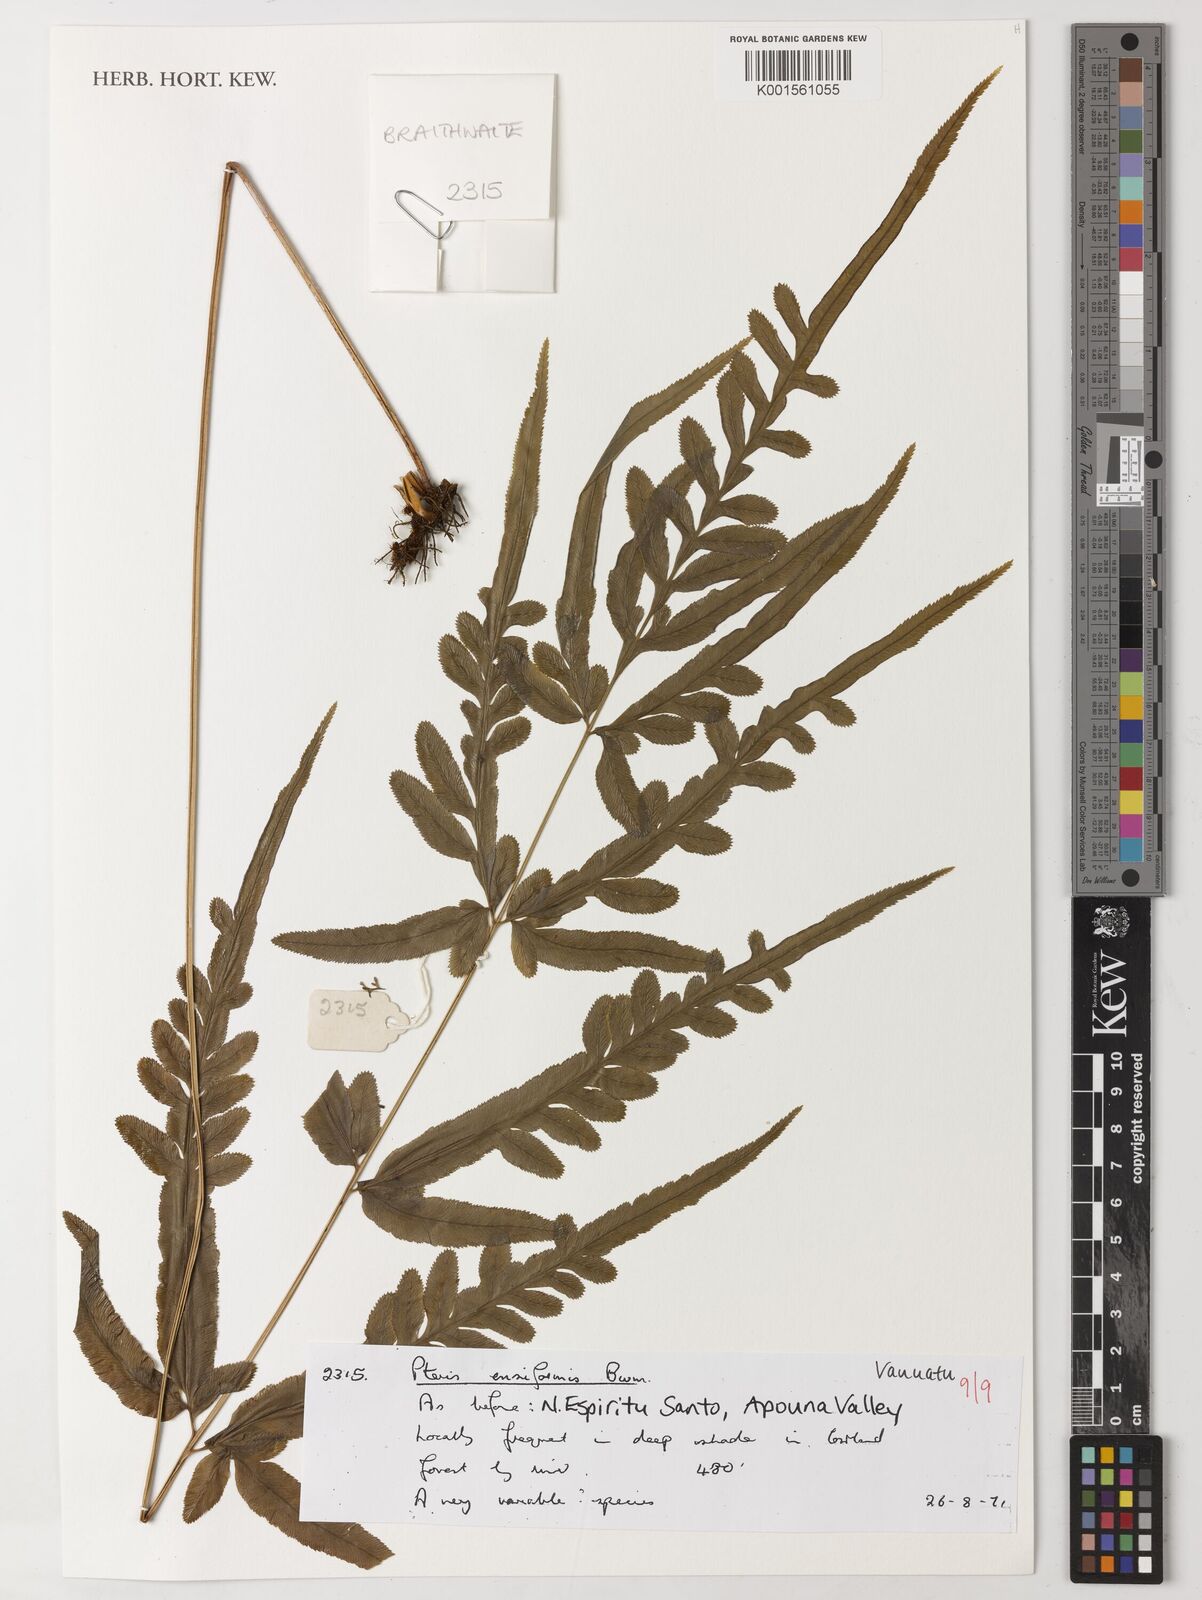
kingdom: Plantae
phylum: Tracheophyta
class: Polypodiopsida
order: Polypodiales
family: Pteridaceae
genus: Pteris
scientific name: Pteris ensiformis
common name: Sword brake
